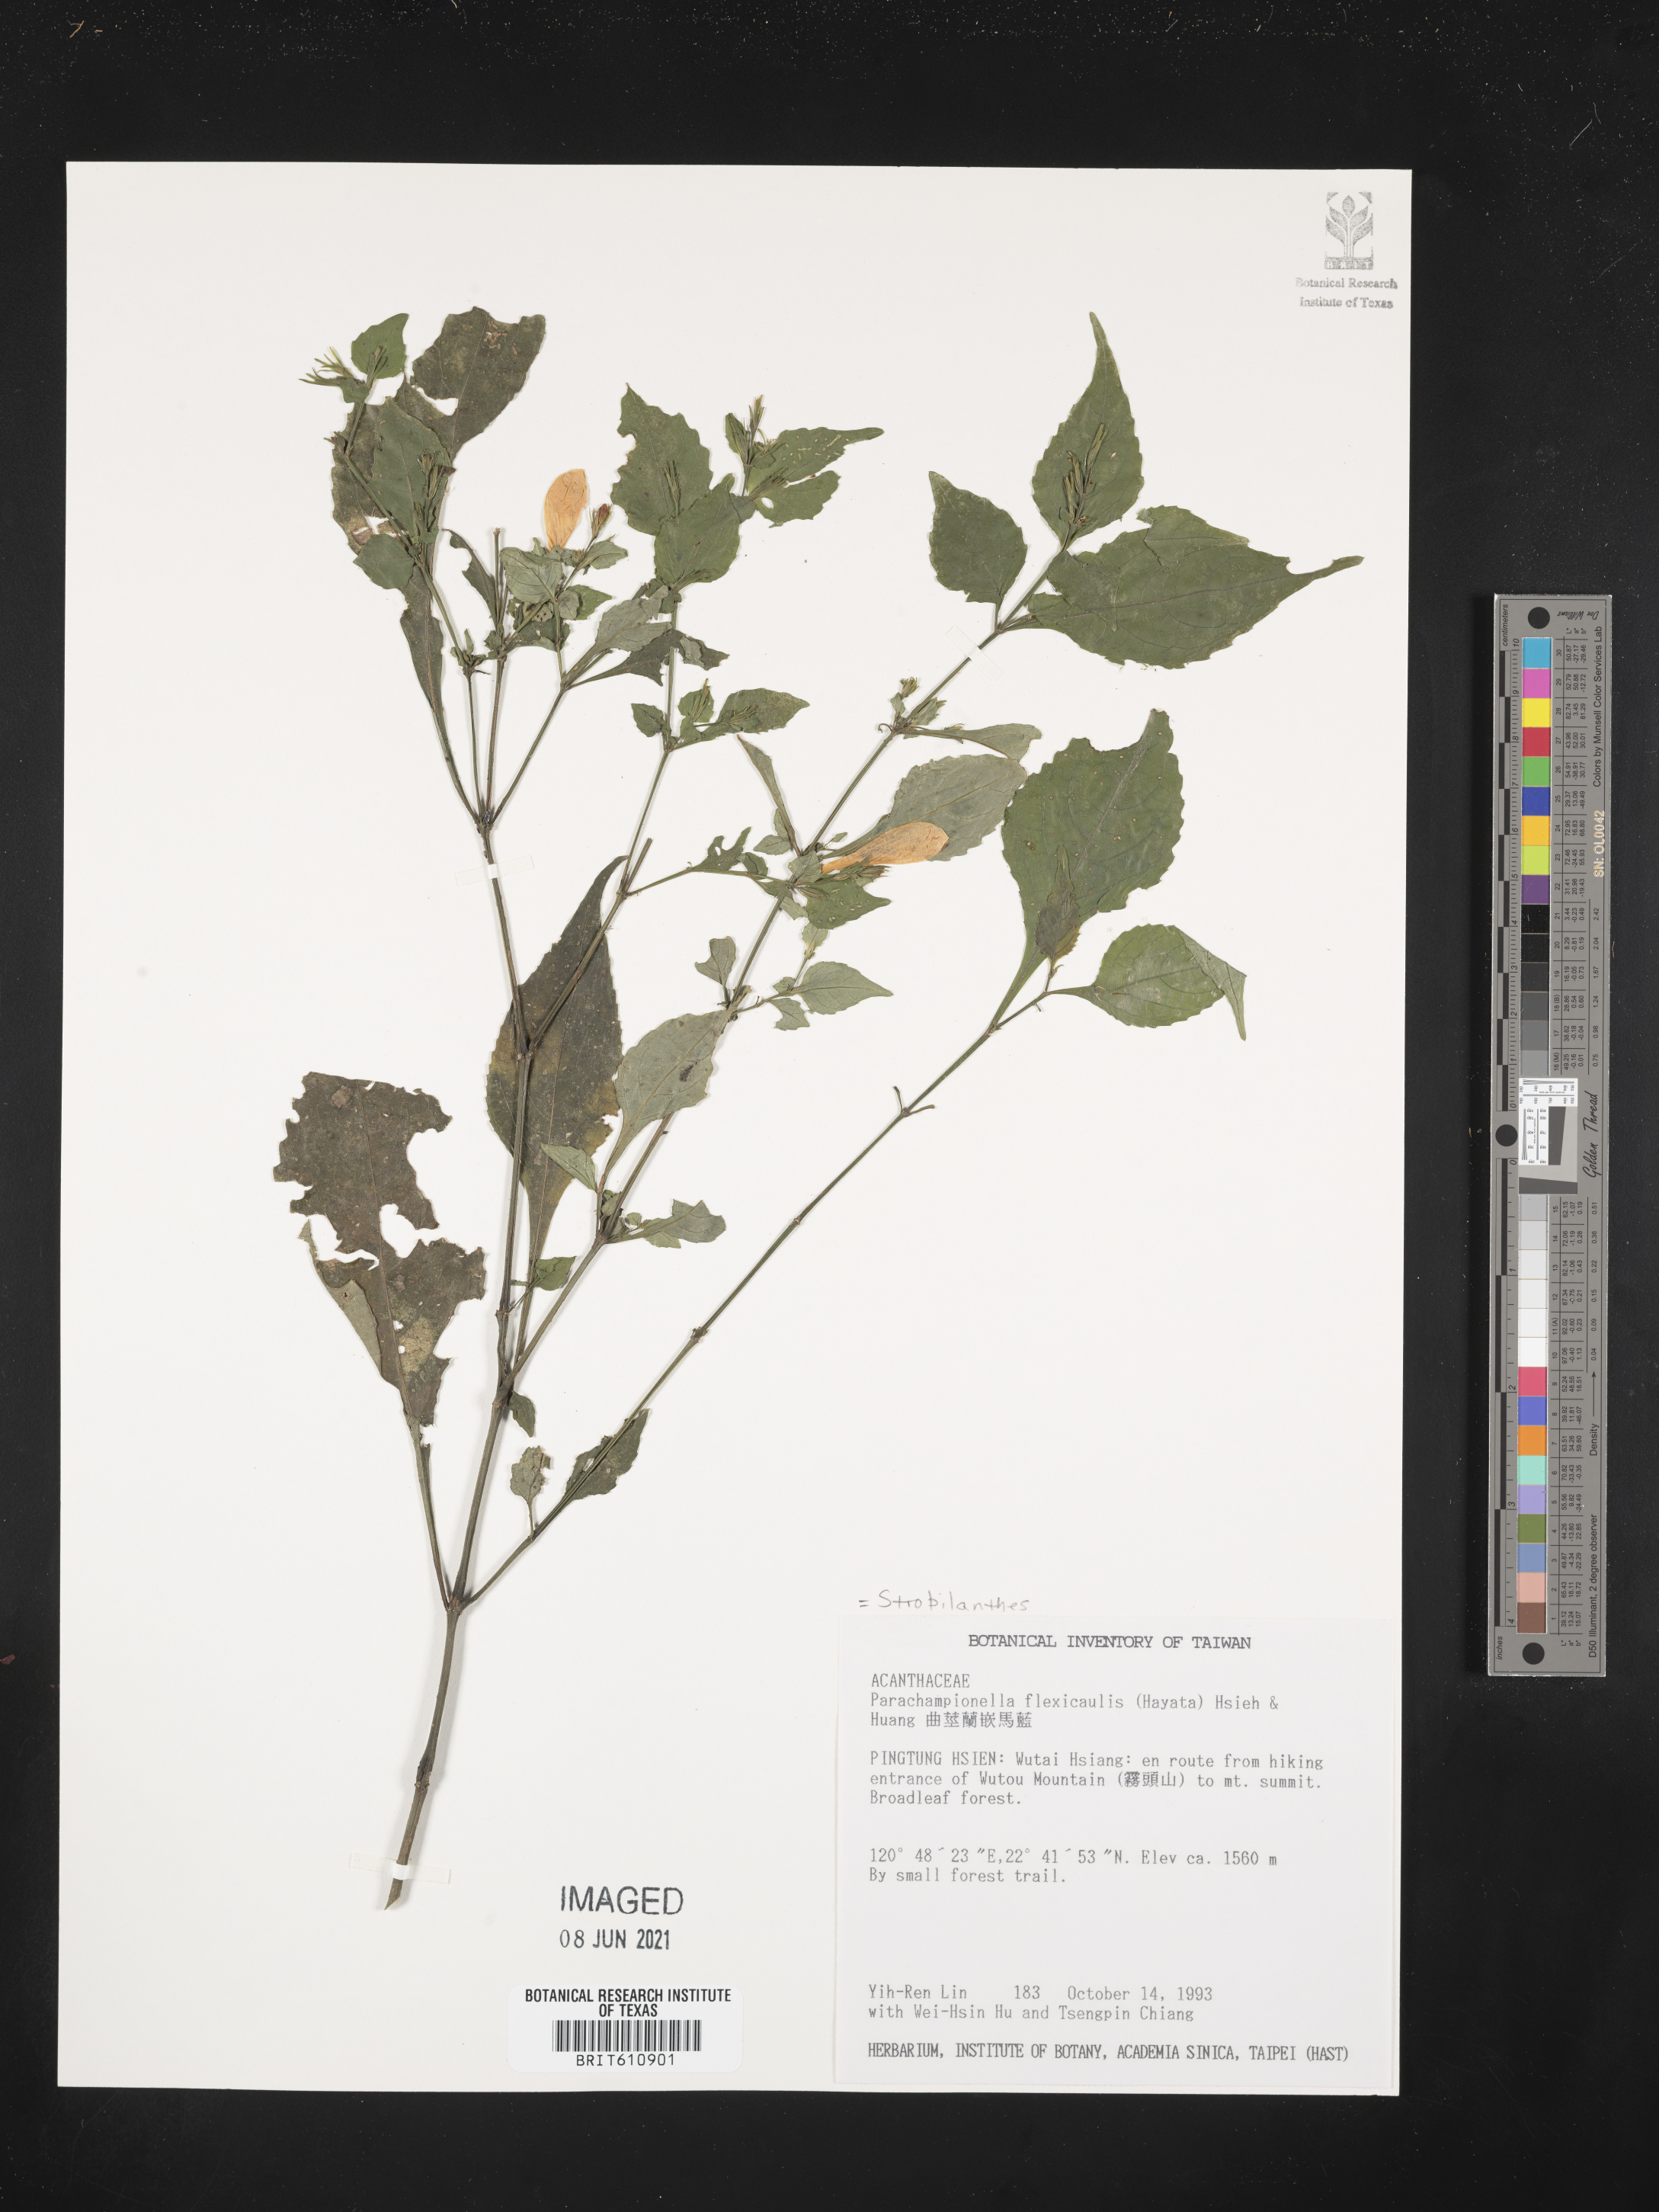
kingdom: Plantae
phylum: Tracheophyta
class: Magnoliopsida
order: Lamiales
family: Acanthaceae
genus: Strobilanthes
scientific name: Strobilanthes
